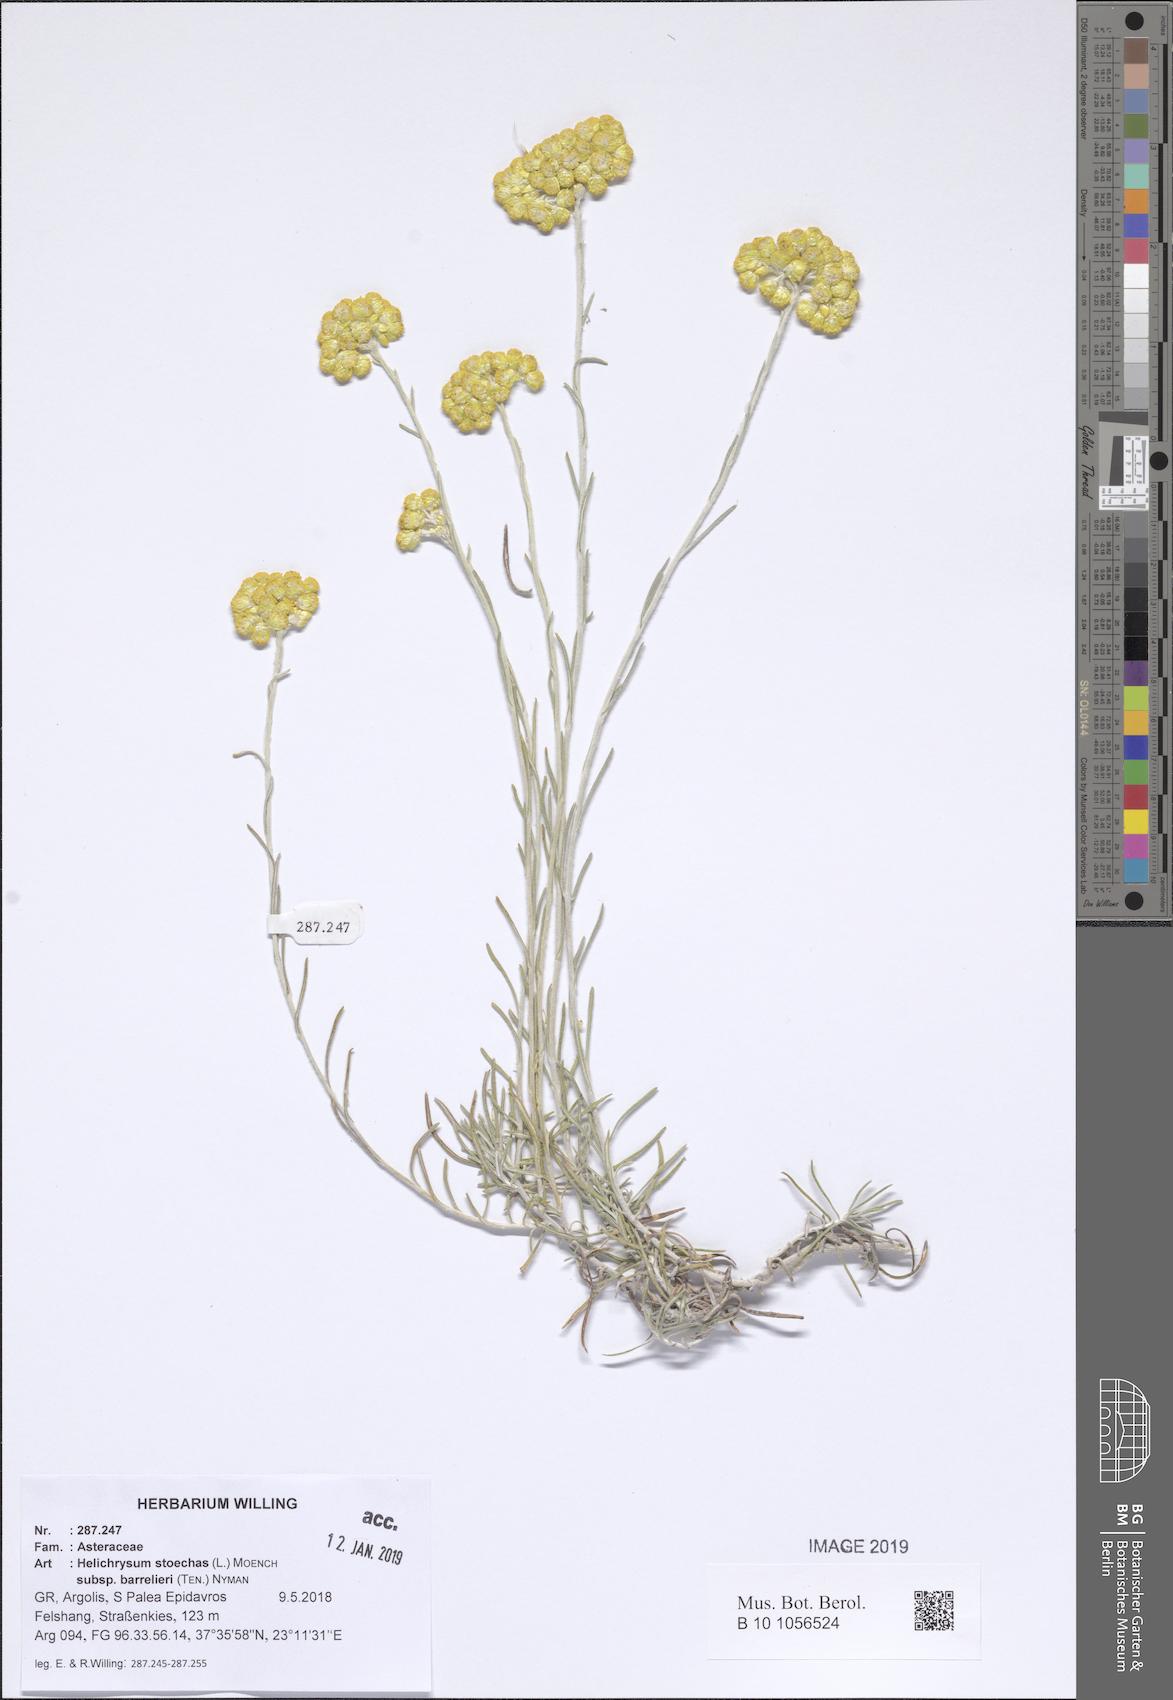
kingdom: Plantae
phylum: Tracheophyta
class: Magnoliopsida
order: Asterales
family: Asteraceae
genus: Helichrysum
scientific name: Helichrysum stoechas
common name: Goldilocks
